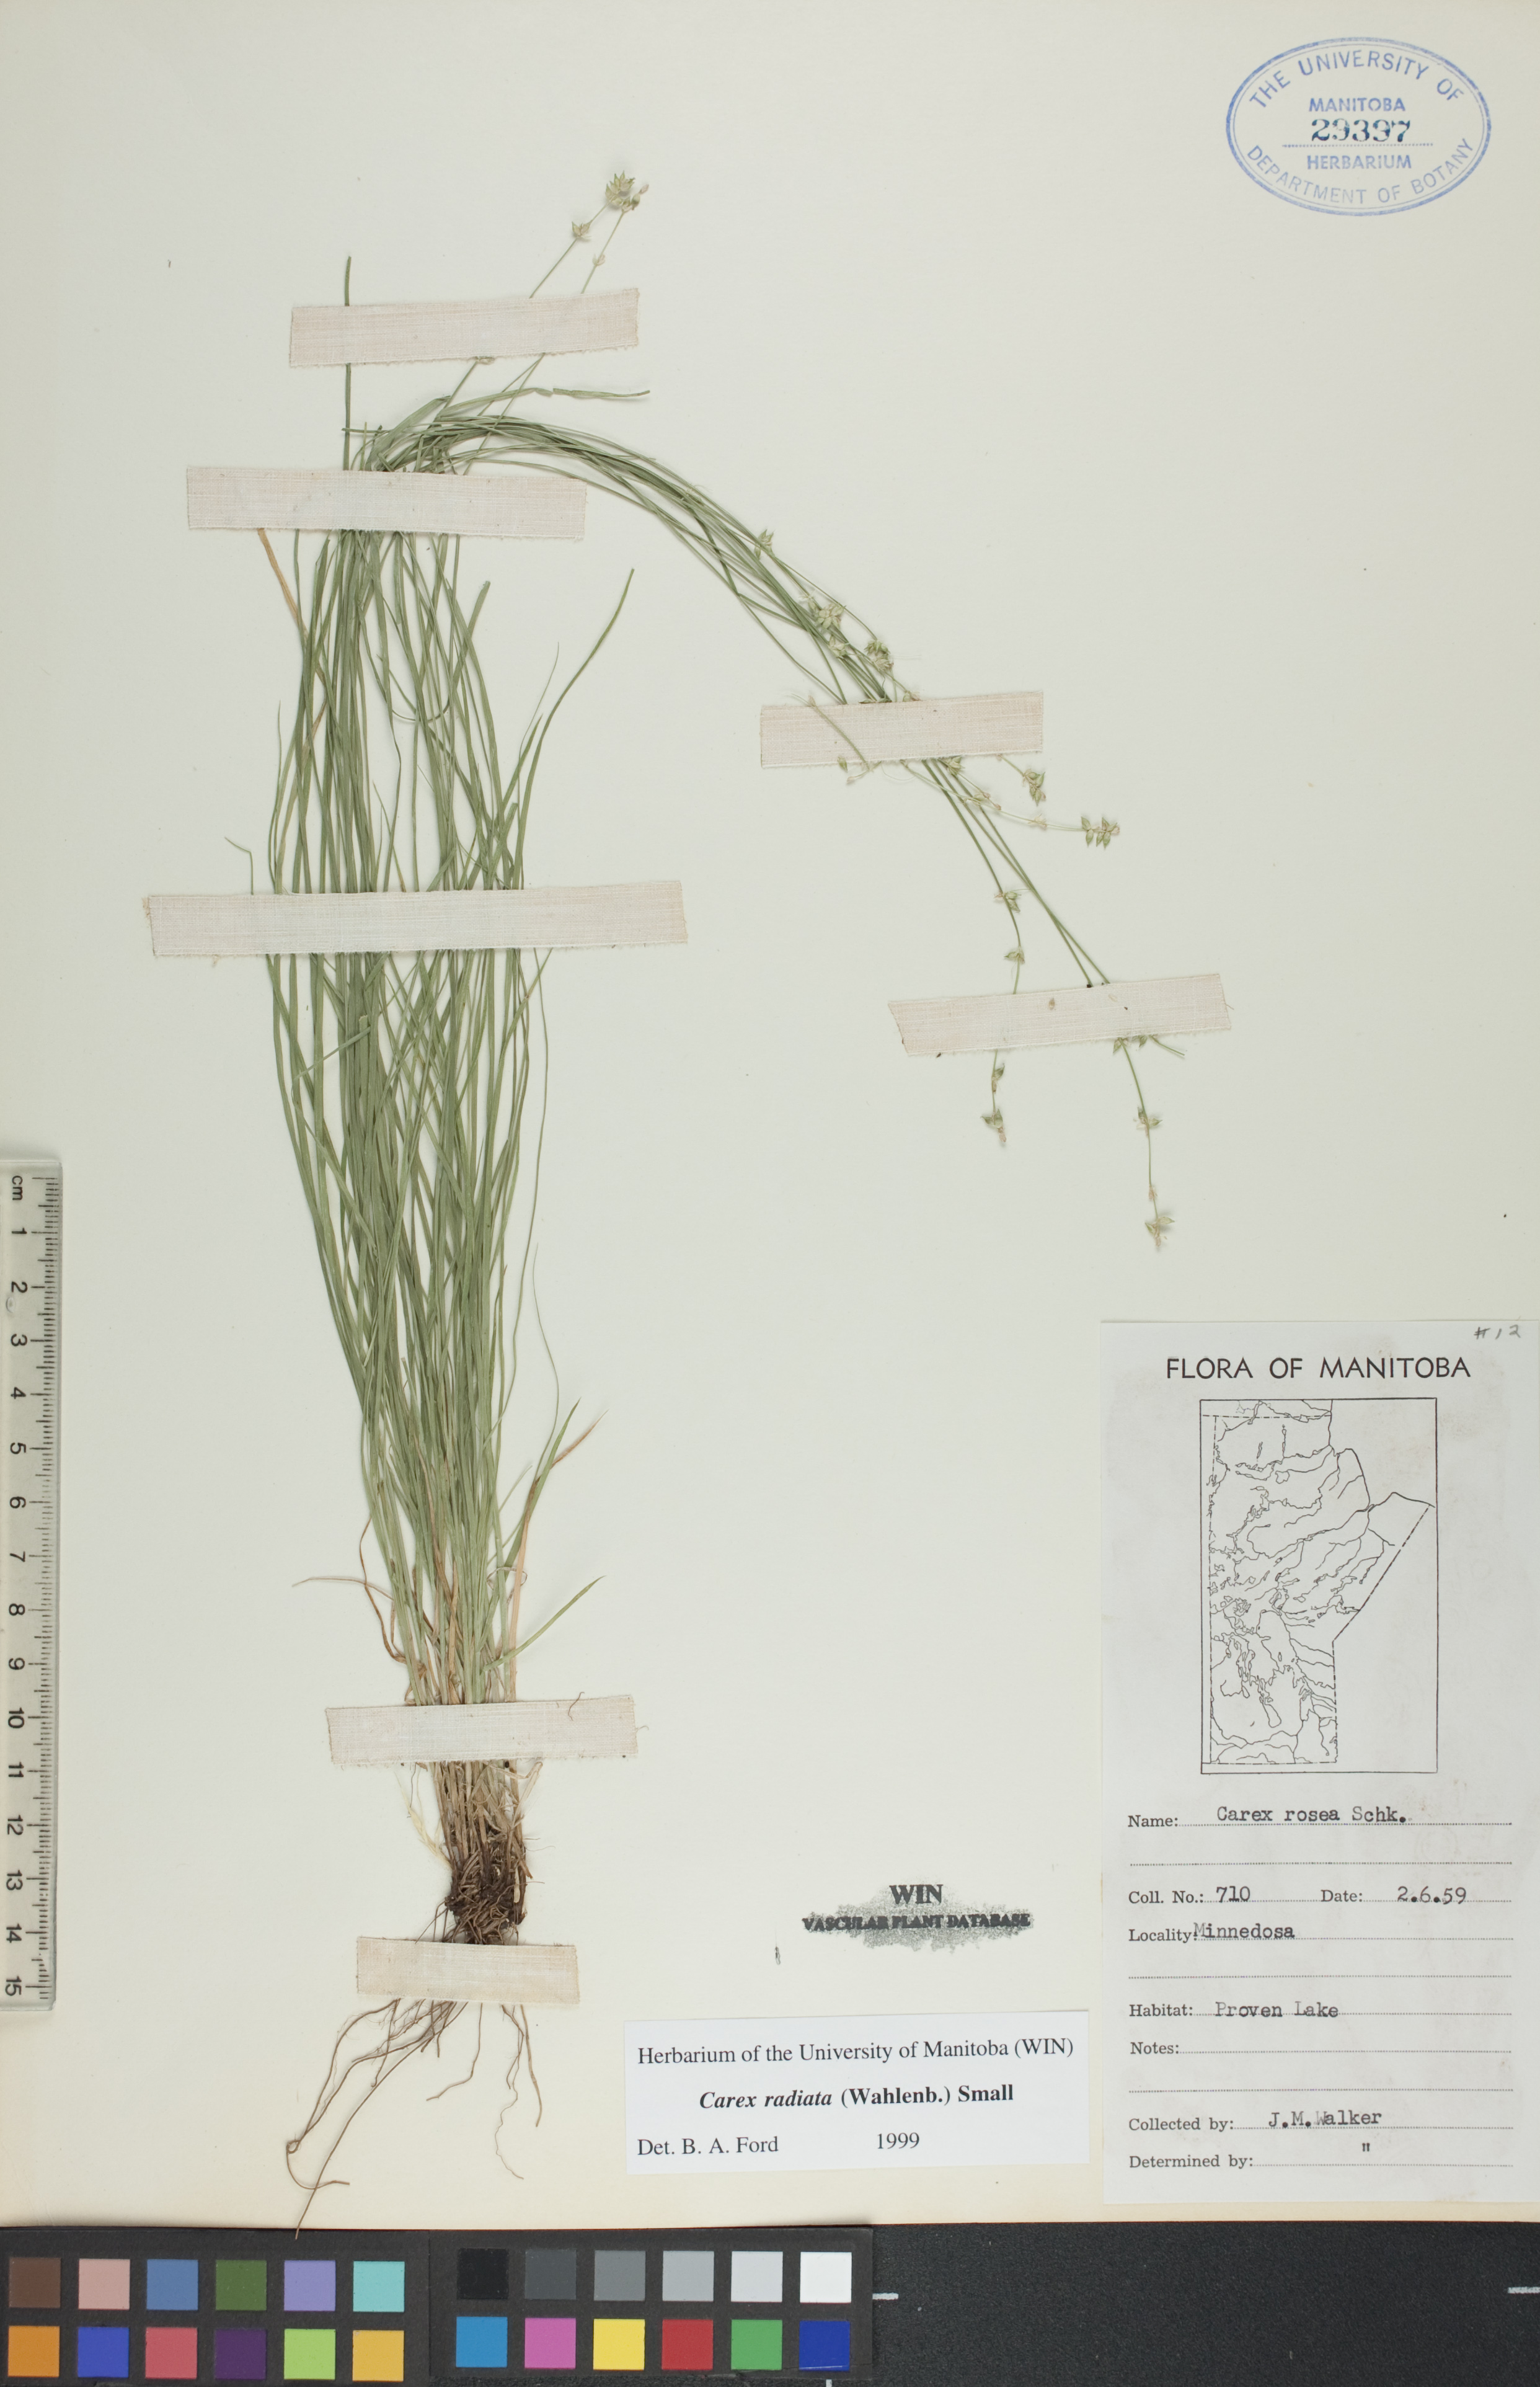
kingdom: Plantae
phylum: Tracheophyta
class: Liliopsida
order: Poales
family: Cyperaceae
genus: Carex
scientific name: Carex radiata
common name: Eastern star sedge
